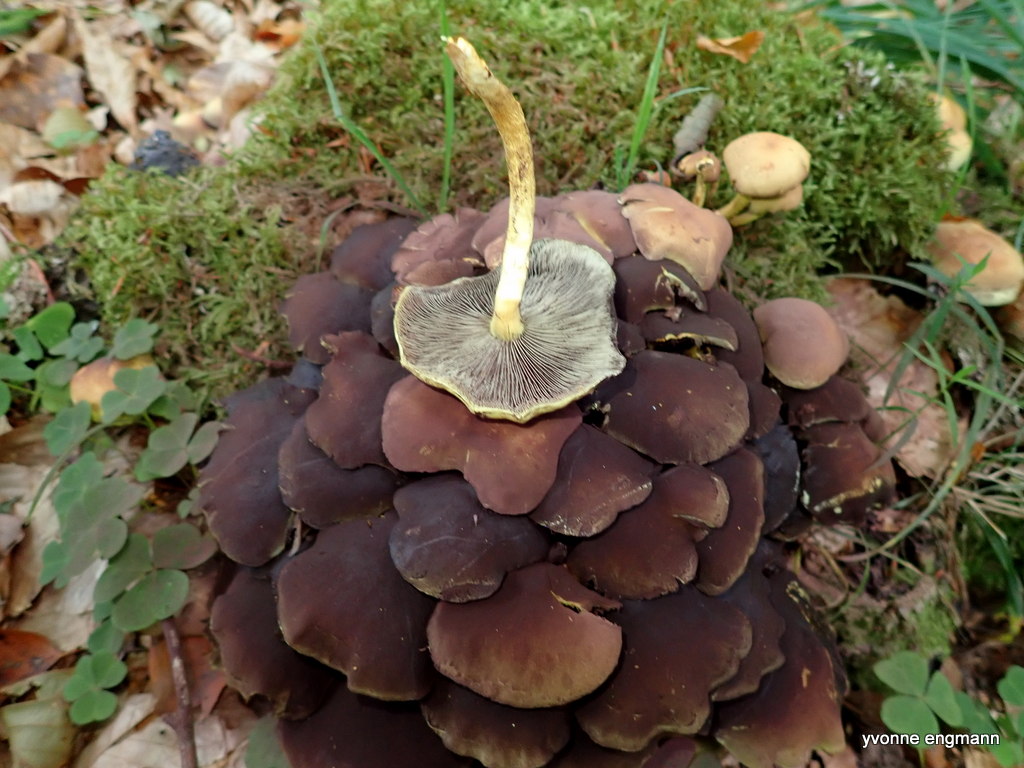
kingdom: Fungi
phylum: Basidiomycota
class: Agaricomycetes
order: Agaricales
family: Strophariaceae
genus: Hypholoma
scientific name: Hypholoma fasciculare
